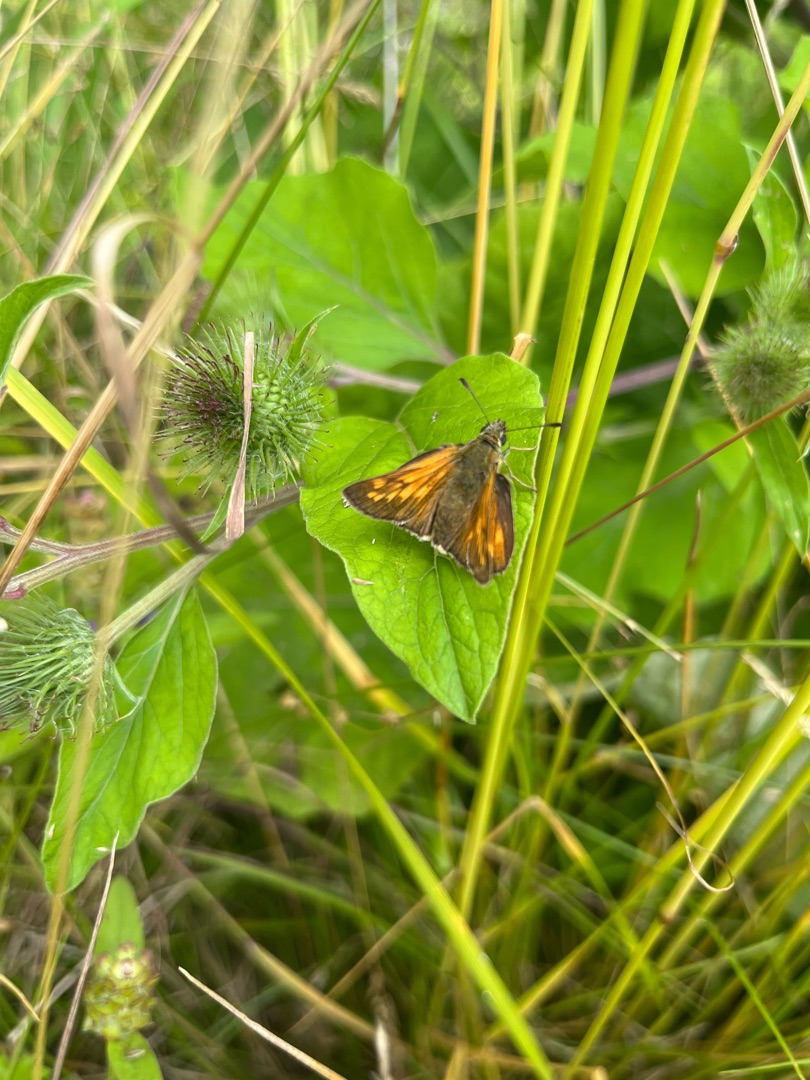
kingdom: Animalia
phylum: Arthropoda
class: Insecta
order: Lepidoptera
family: Hesperiidae
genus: Ochlodes
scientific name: Ochlodes venata
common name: Stor bredpande
